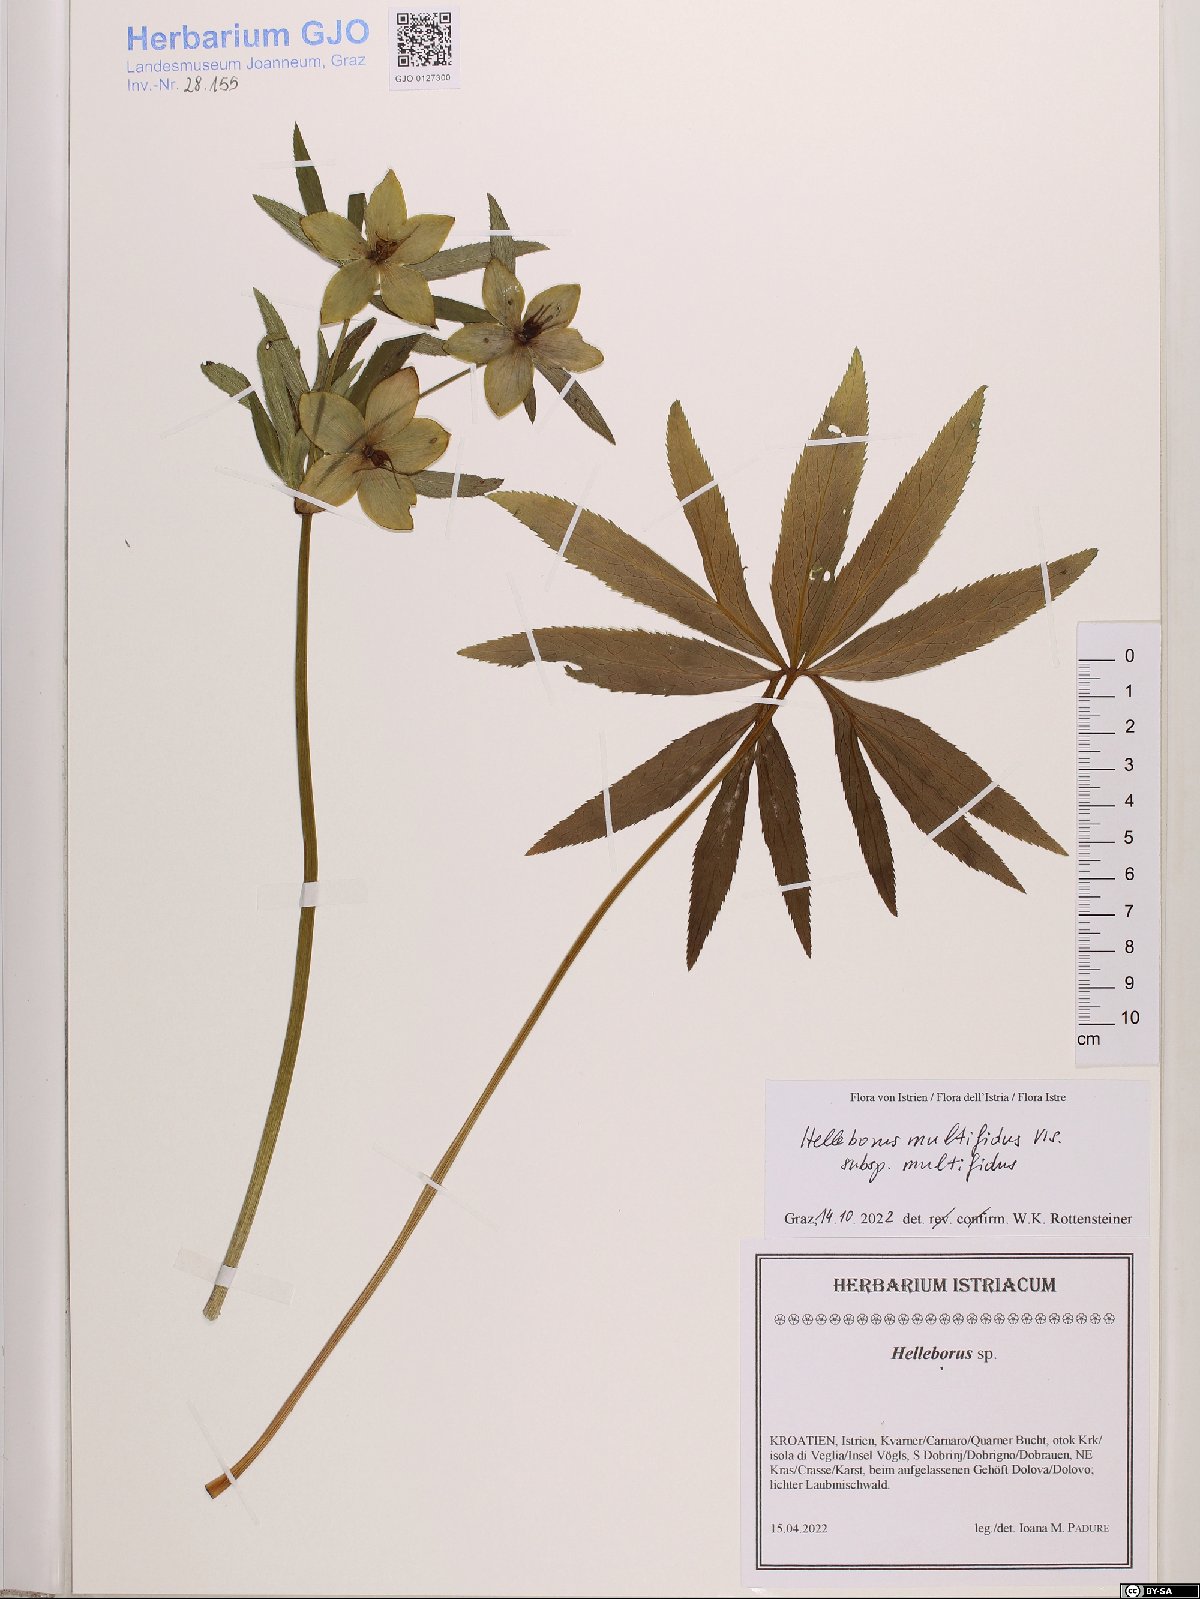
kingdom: Plantae
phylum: Tracheophyta
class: Magnoliopsida
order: Ranunculales
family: Ranunculaceae
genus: Helleborus
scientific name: Helleborus multifidus
